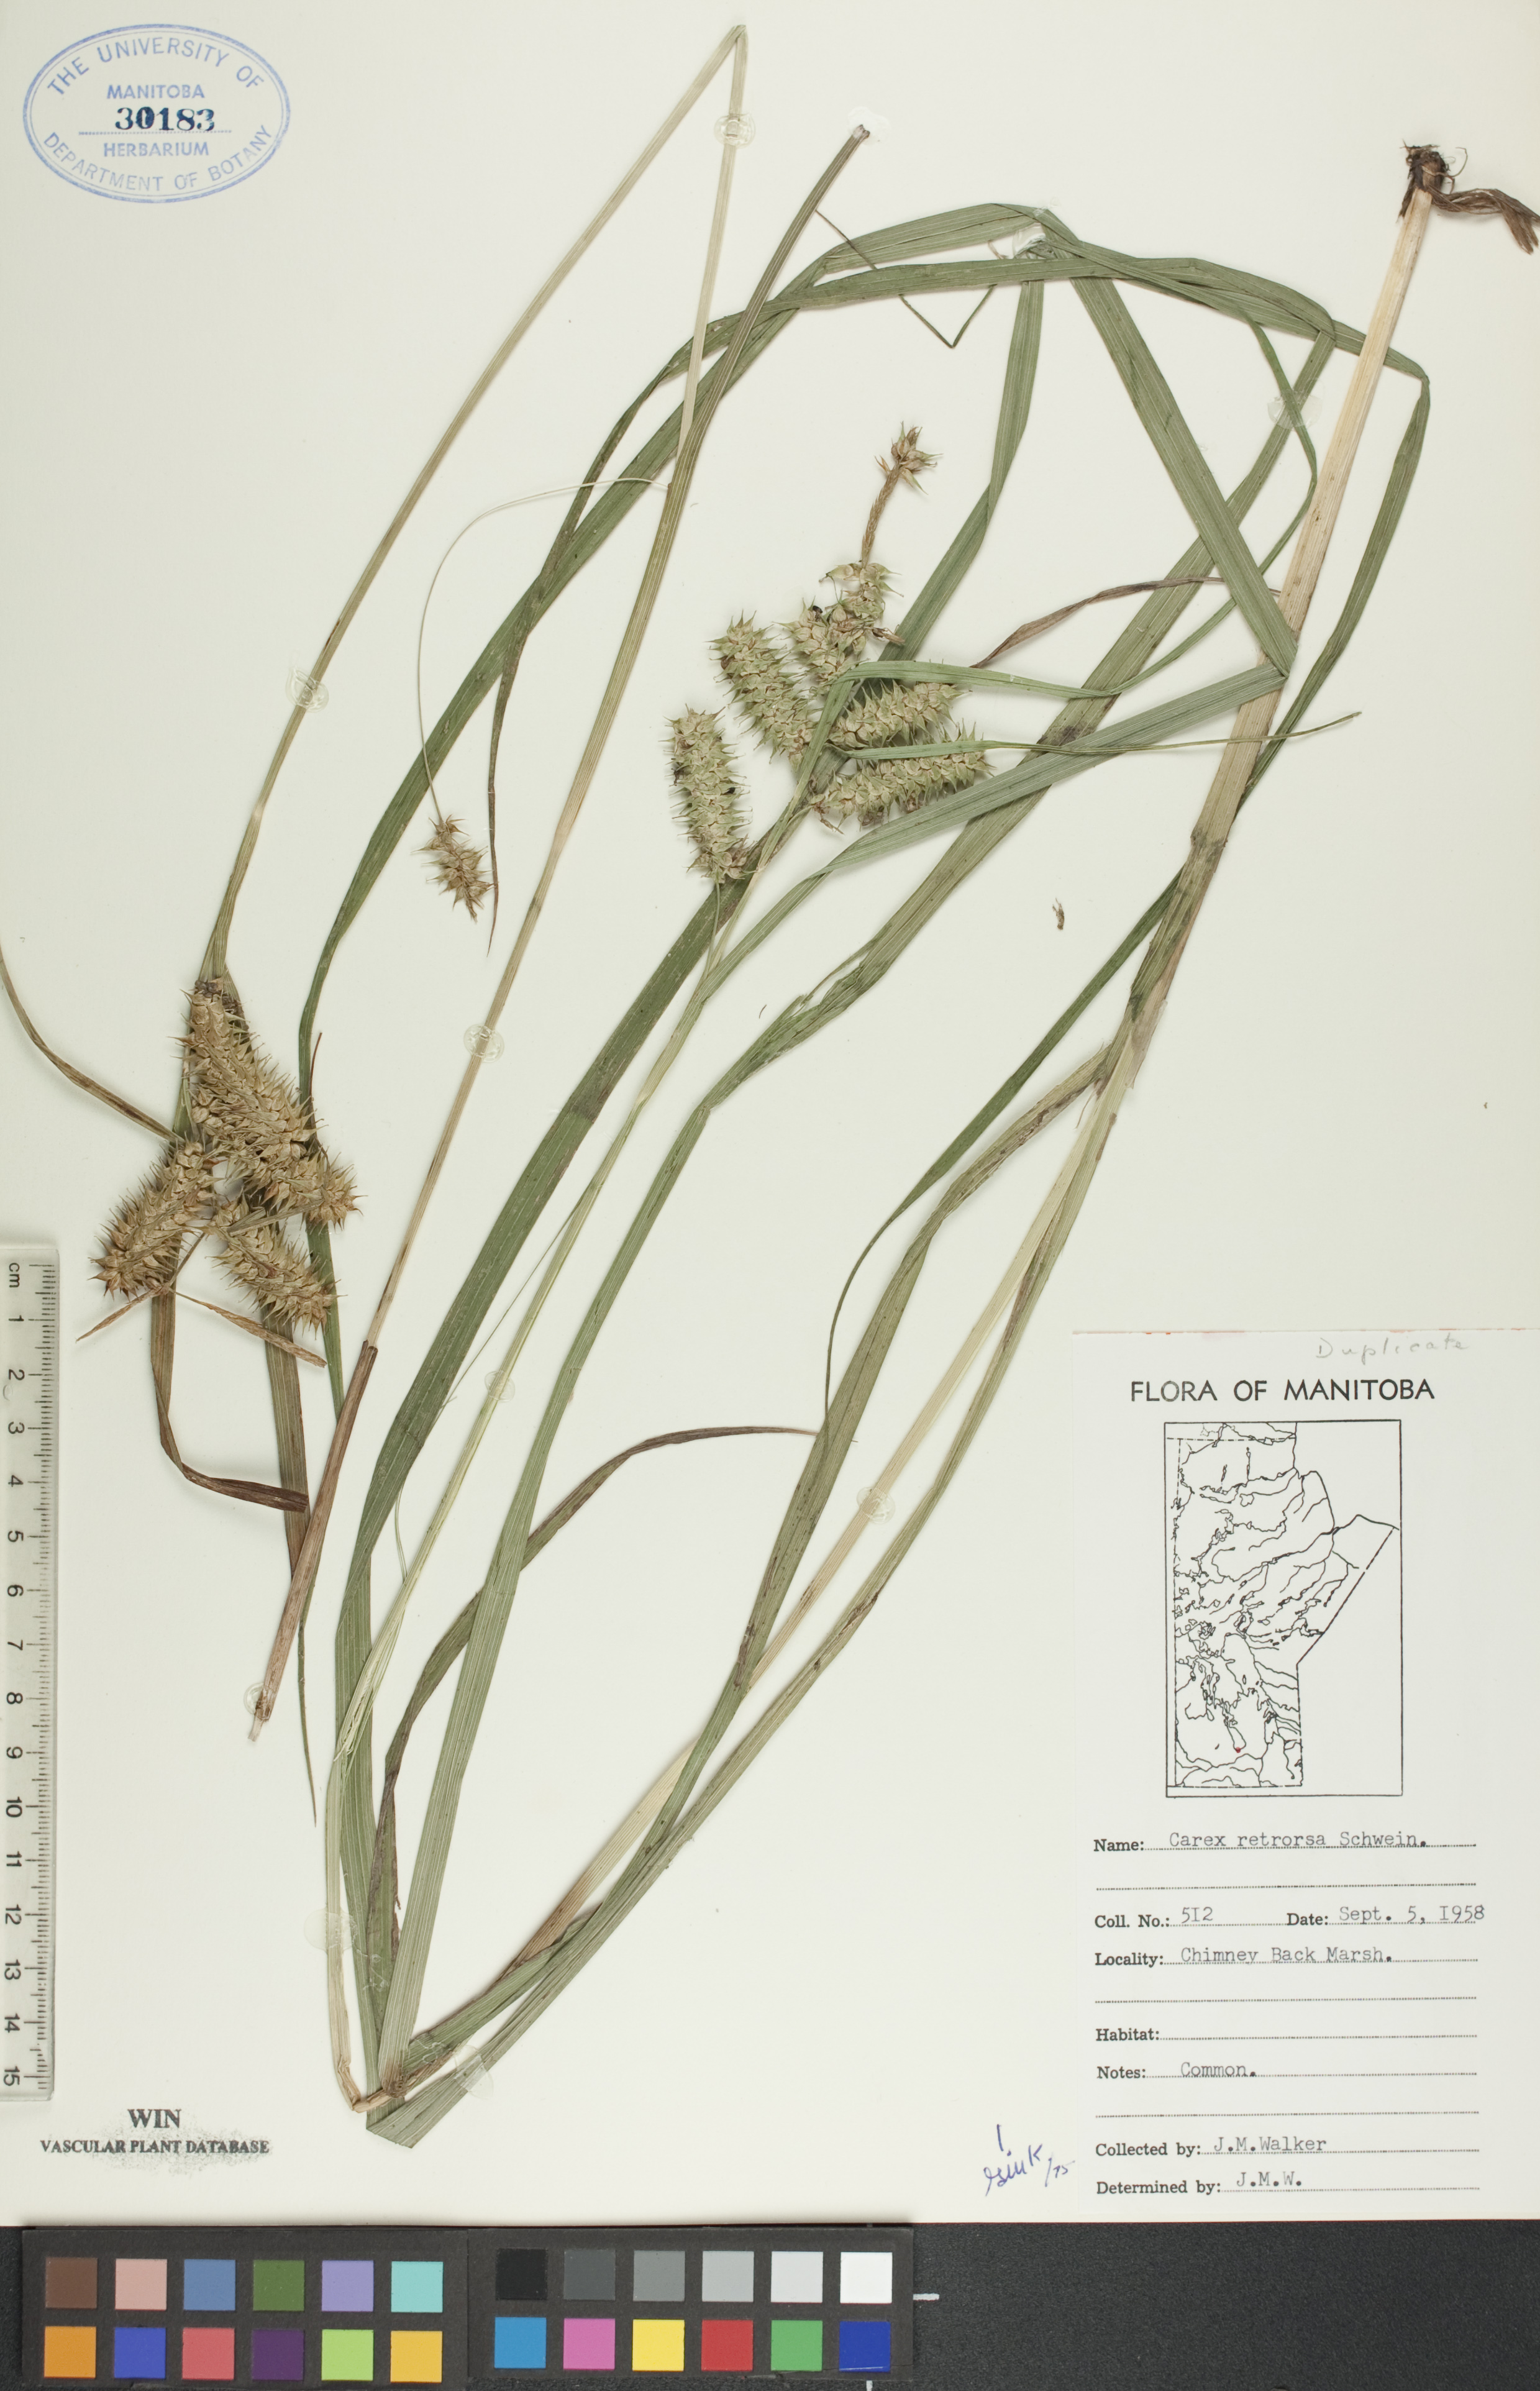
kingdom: Plantae
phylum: Tracheophyta
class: Liliopsida
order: Poales
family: Cyperaceae
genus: Carex
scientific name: Carex retrorsa
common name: Knot-sheath sedge
